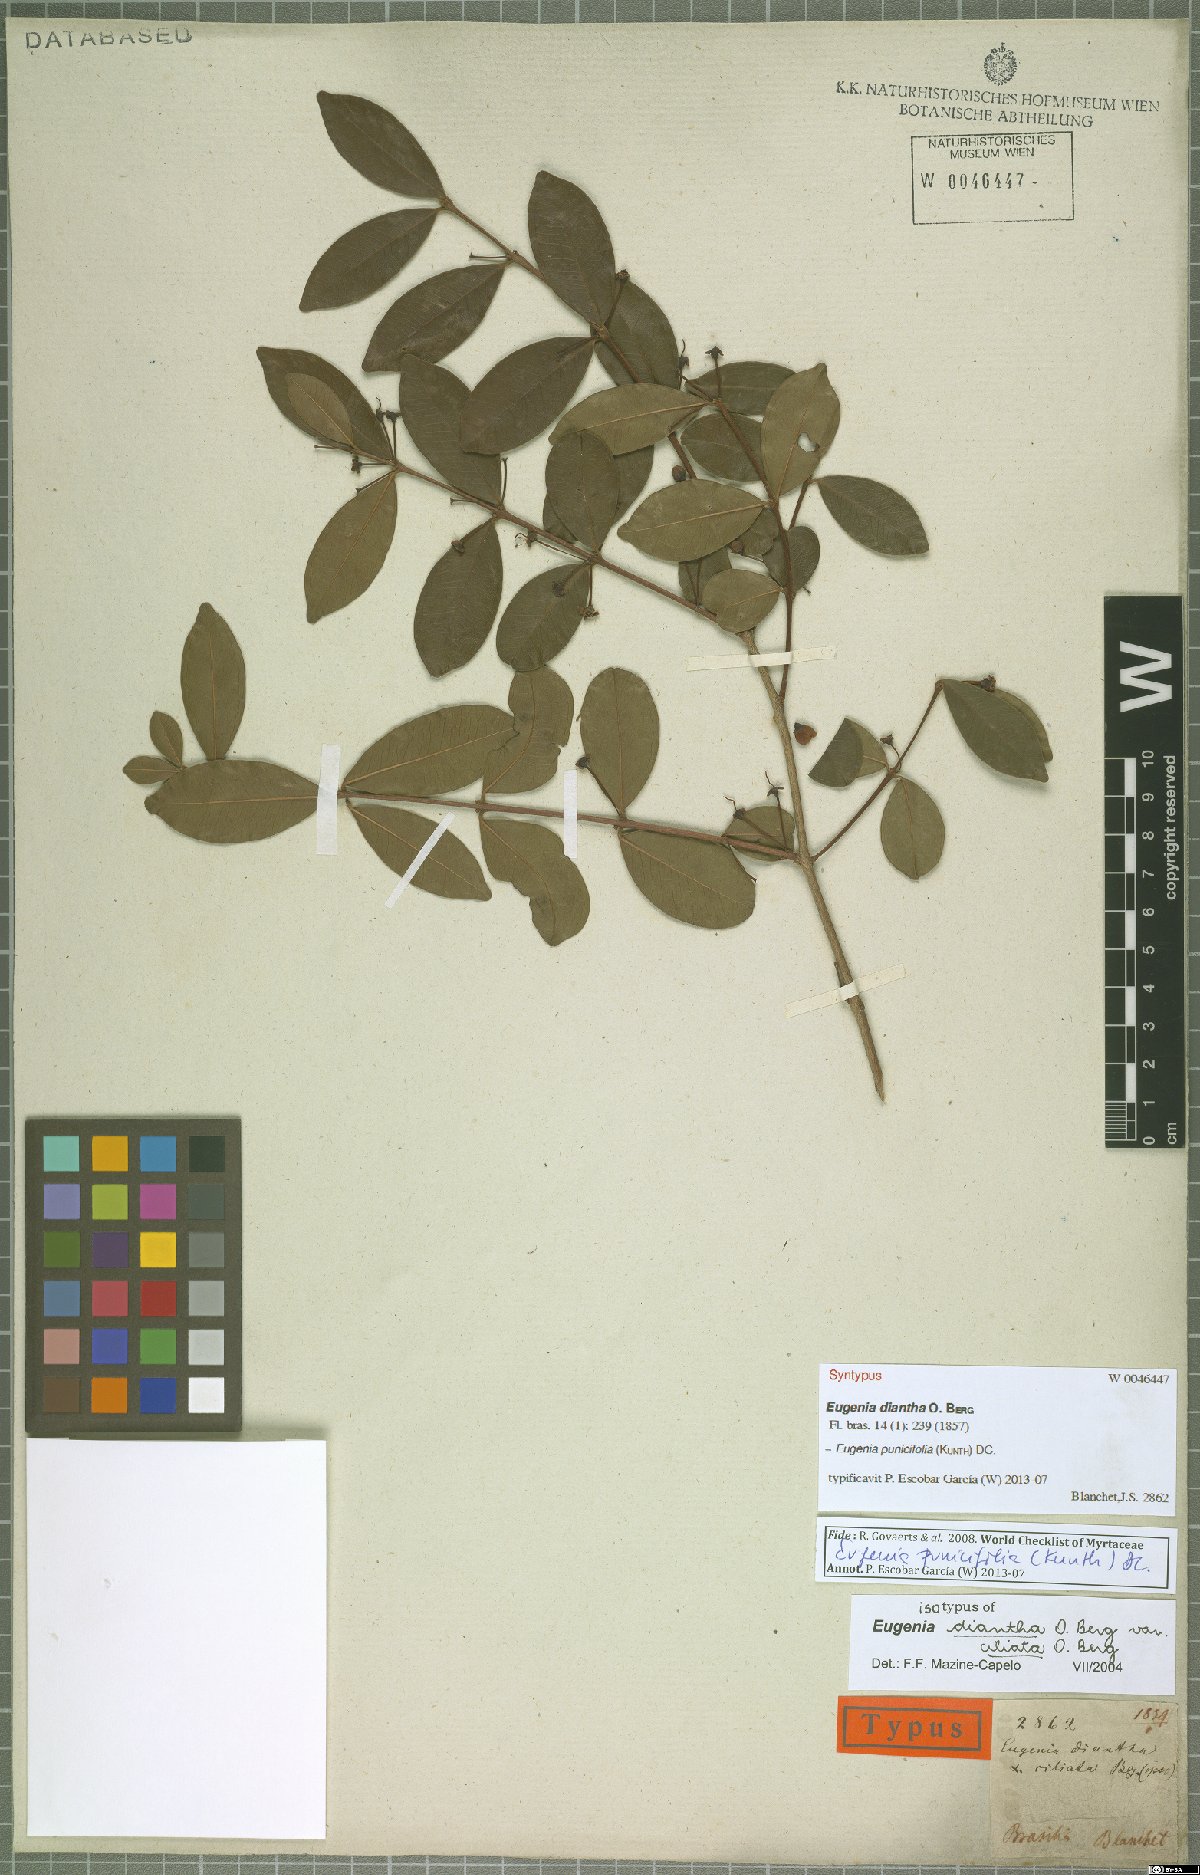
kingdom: Plantae
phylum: Tracheophyta
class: Magnoliopsida
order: Myrtales
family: Myrtaceae
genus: Eugenia
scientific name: Eugenia punicifolia
